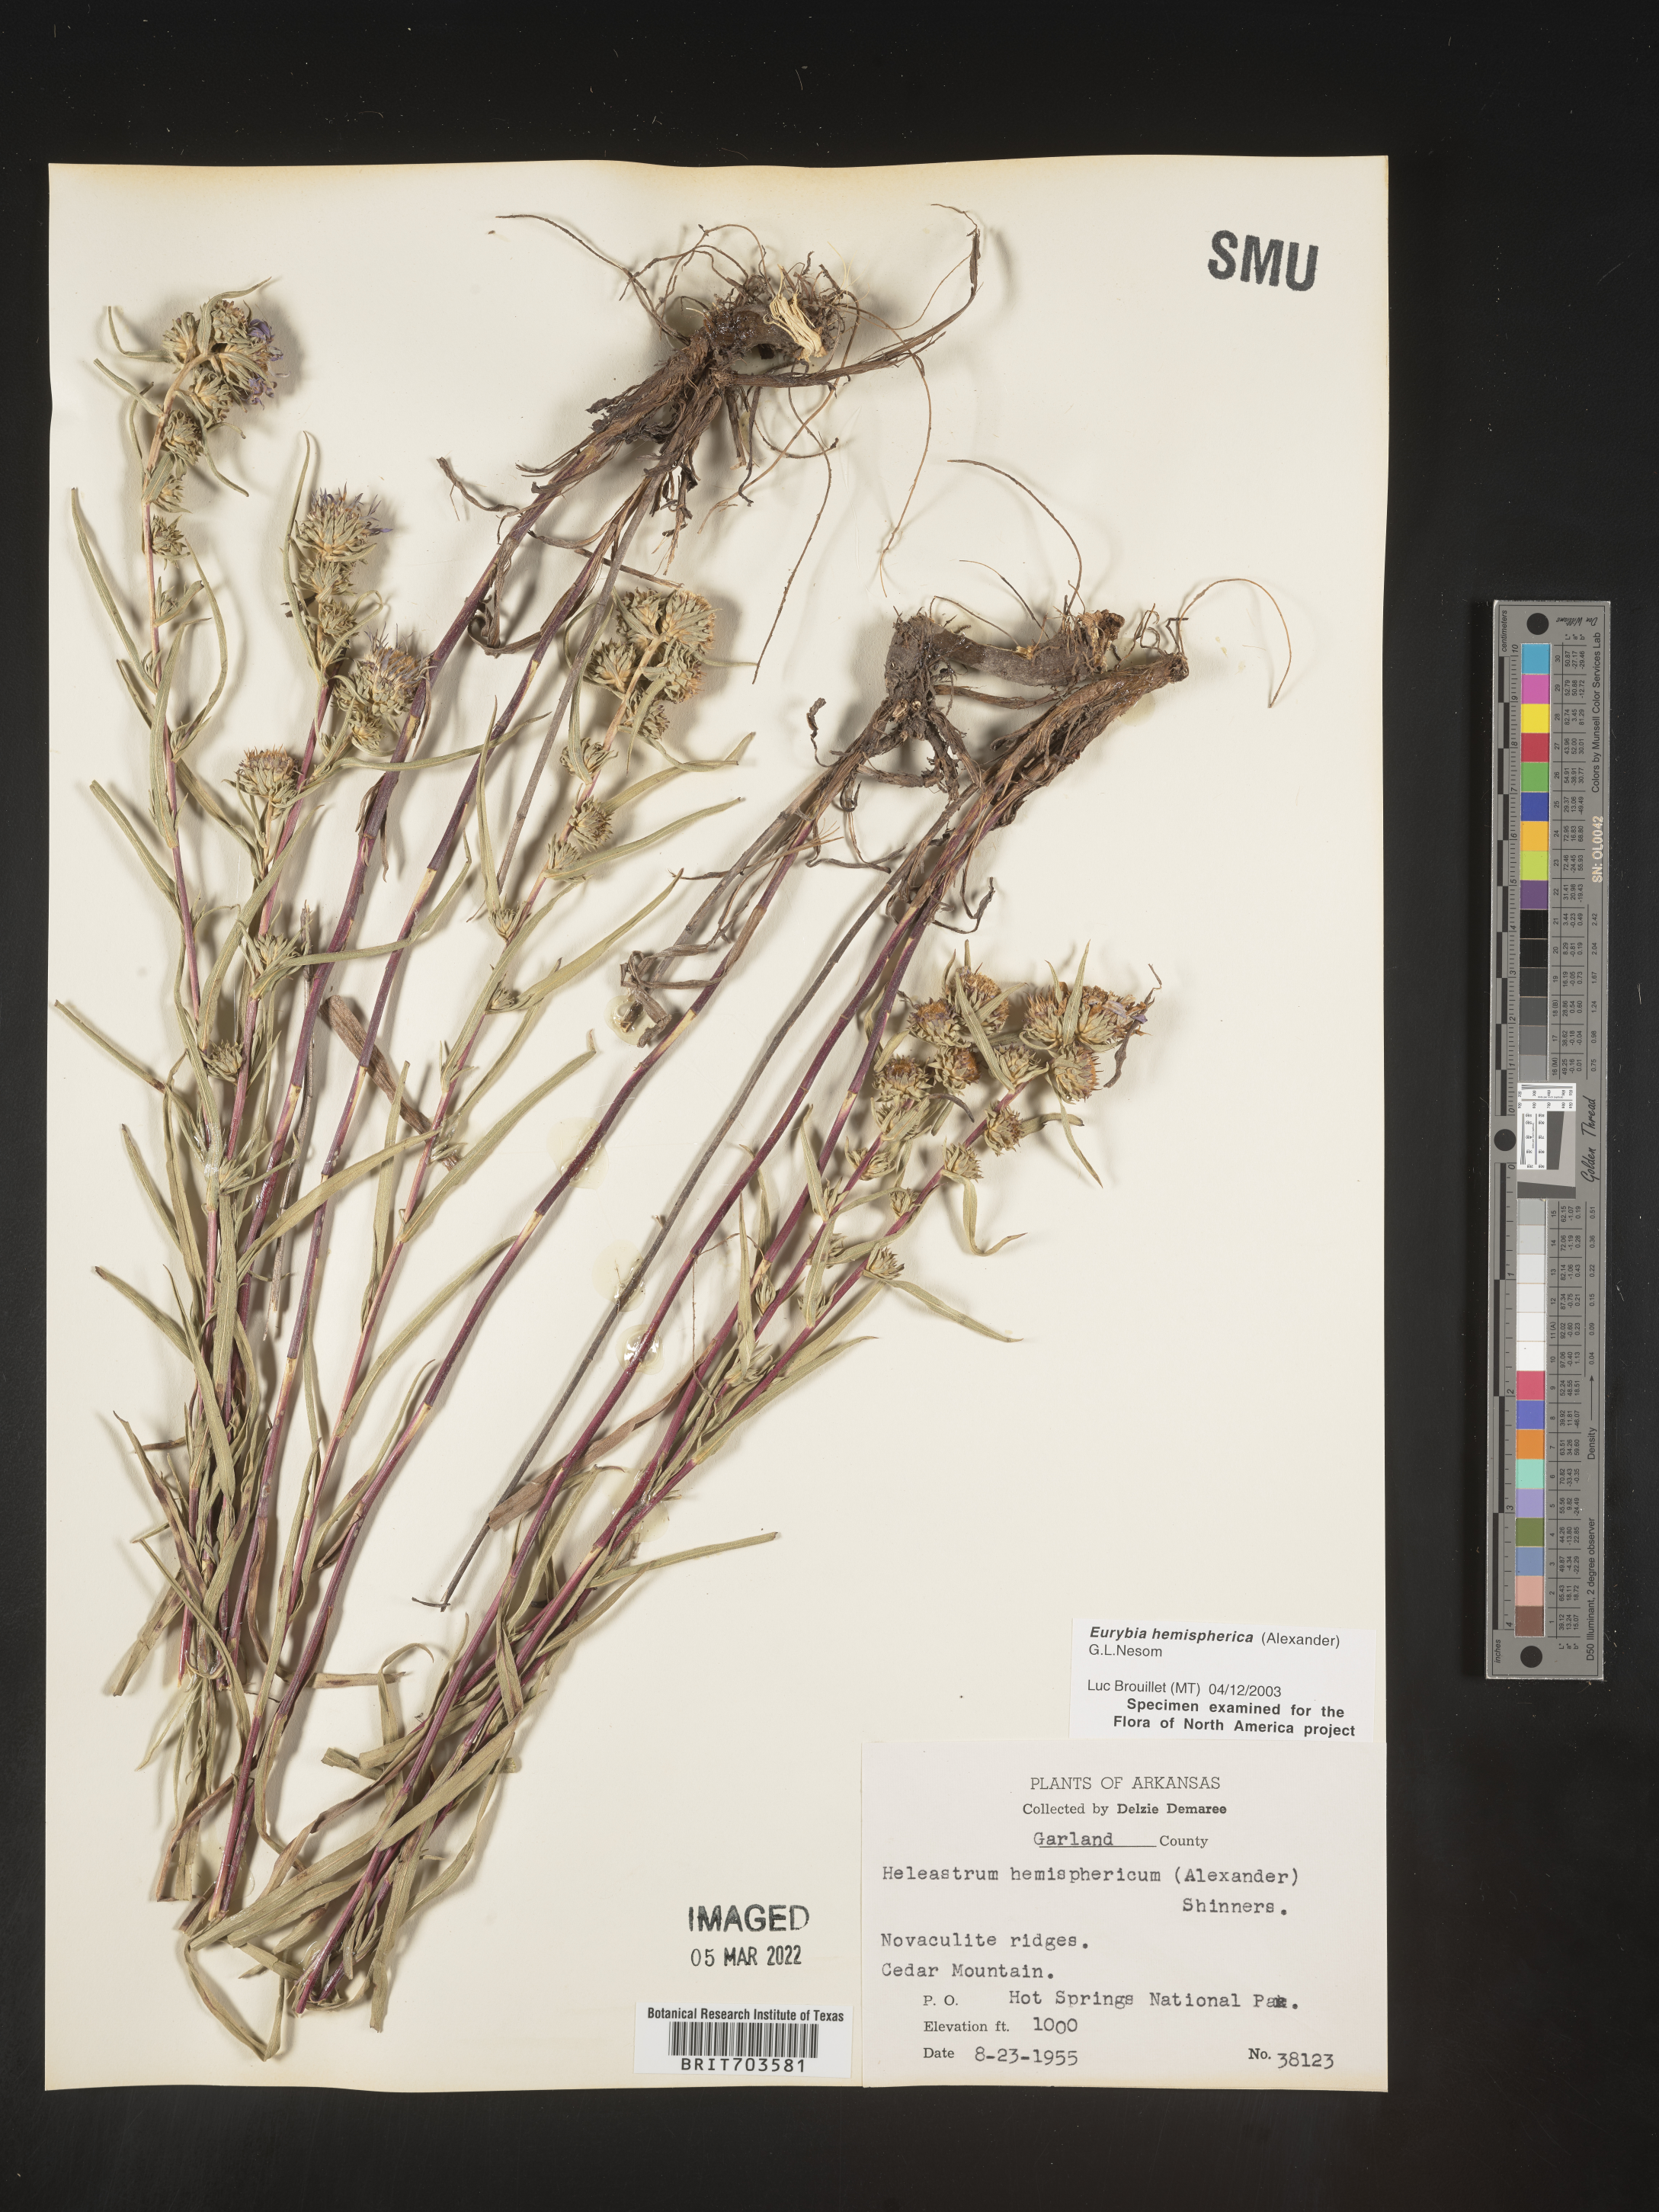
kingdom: Plantae
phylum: Tracheophyta
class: Magnoliopsida
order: Asterales
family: Asteraceae
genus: Eurybia
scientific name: Eurybia hemispherica
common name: Showy aster
